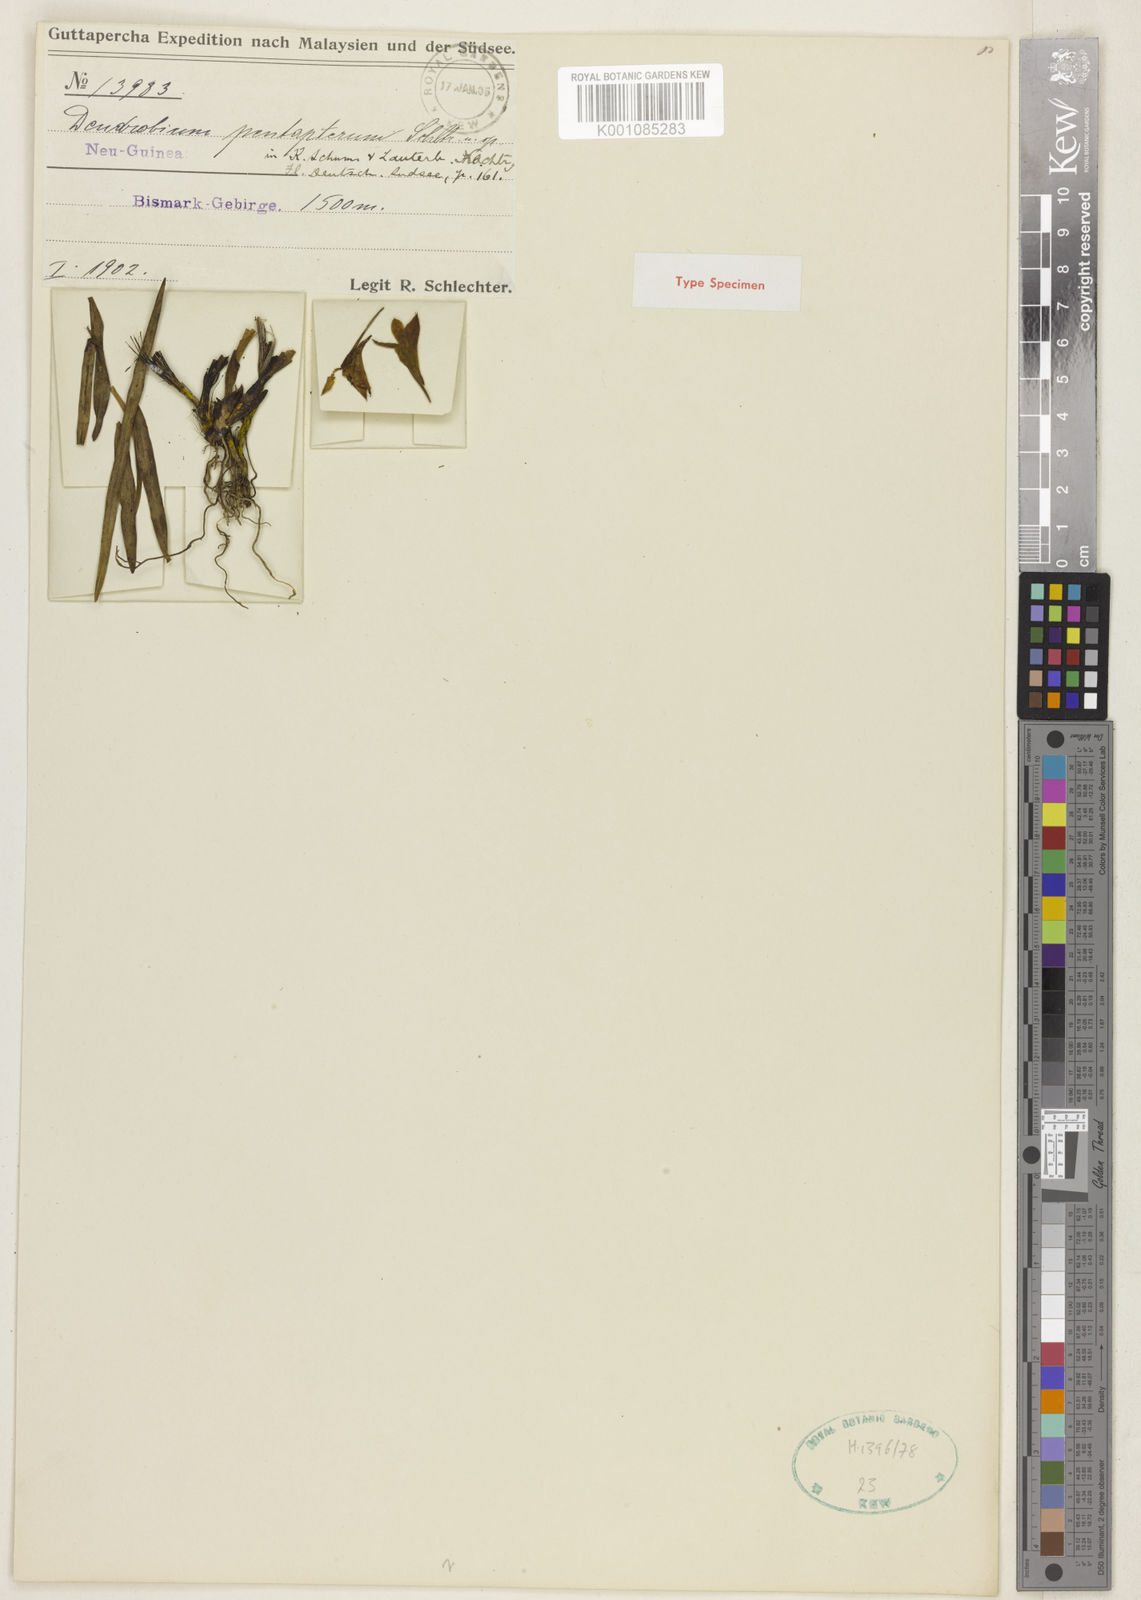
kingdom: Plantae
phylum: Tracheophyta
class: Liliopsida
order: Asparagales
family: Orchidaceae
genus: Dendrobium
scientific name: Dendrobium pentapterum
